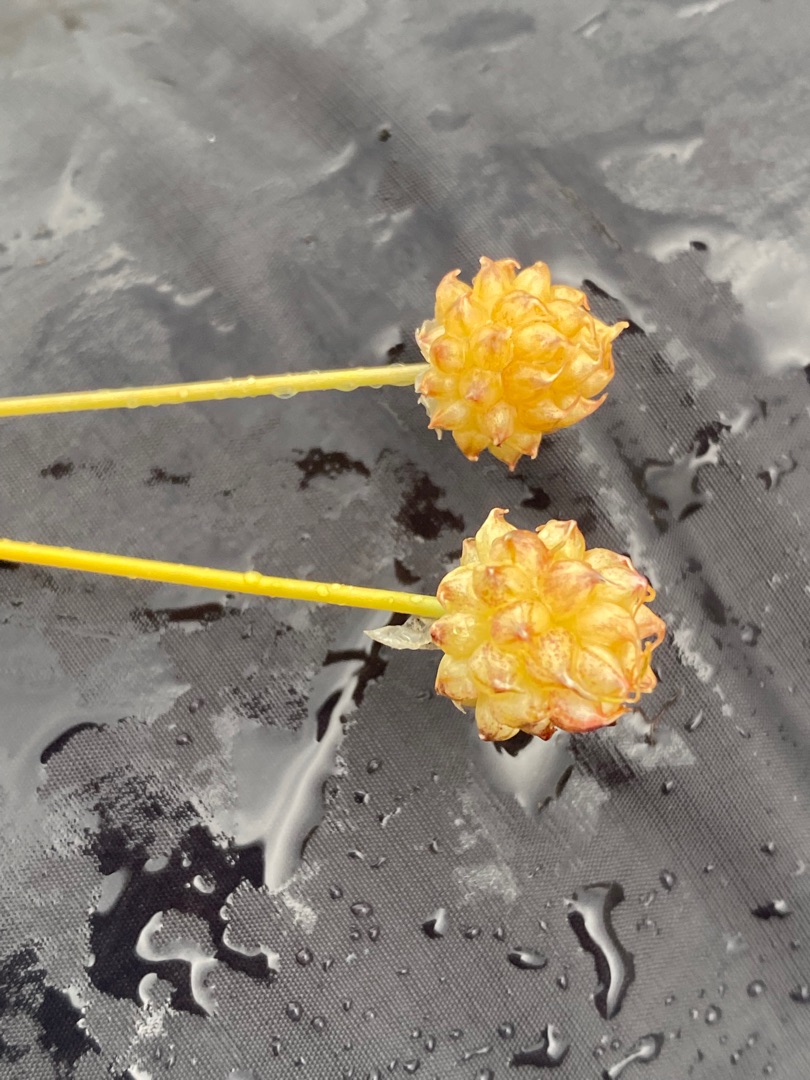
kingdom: Plantae
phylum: Tracheophyta
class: Liliopsida
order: Asparagales
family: Amaryllidaceae
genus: Allium
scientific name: Allium vineale
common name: Sand-løg
